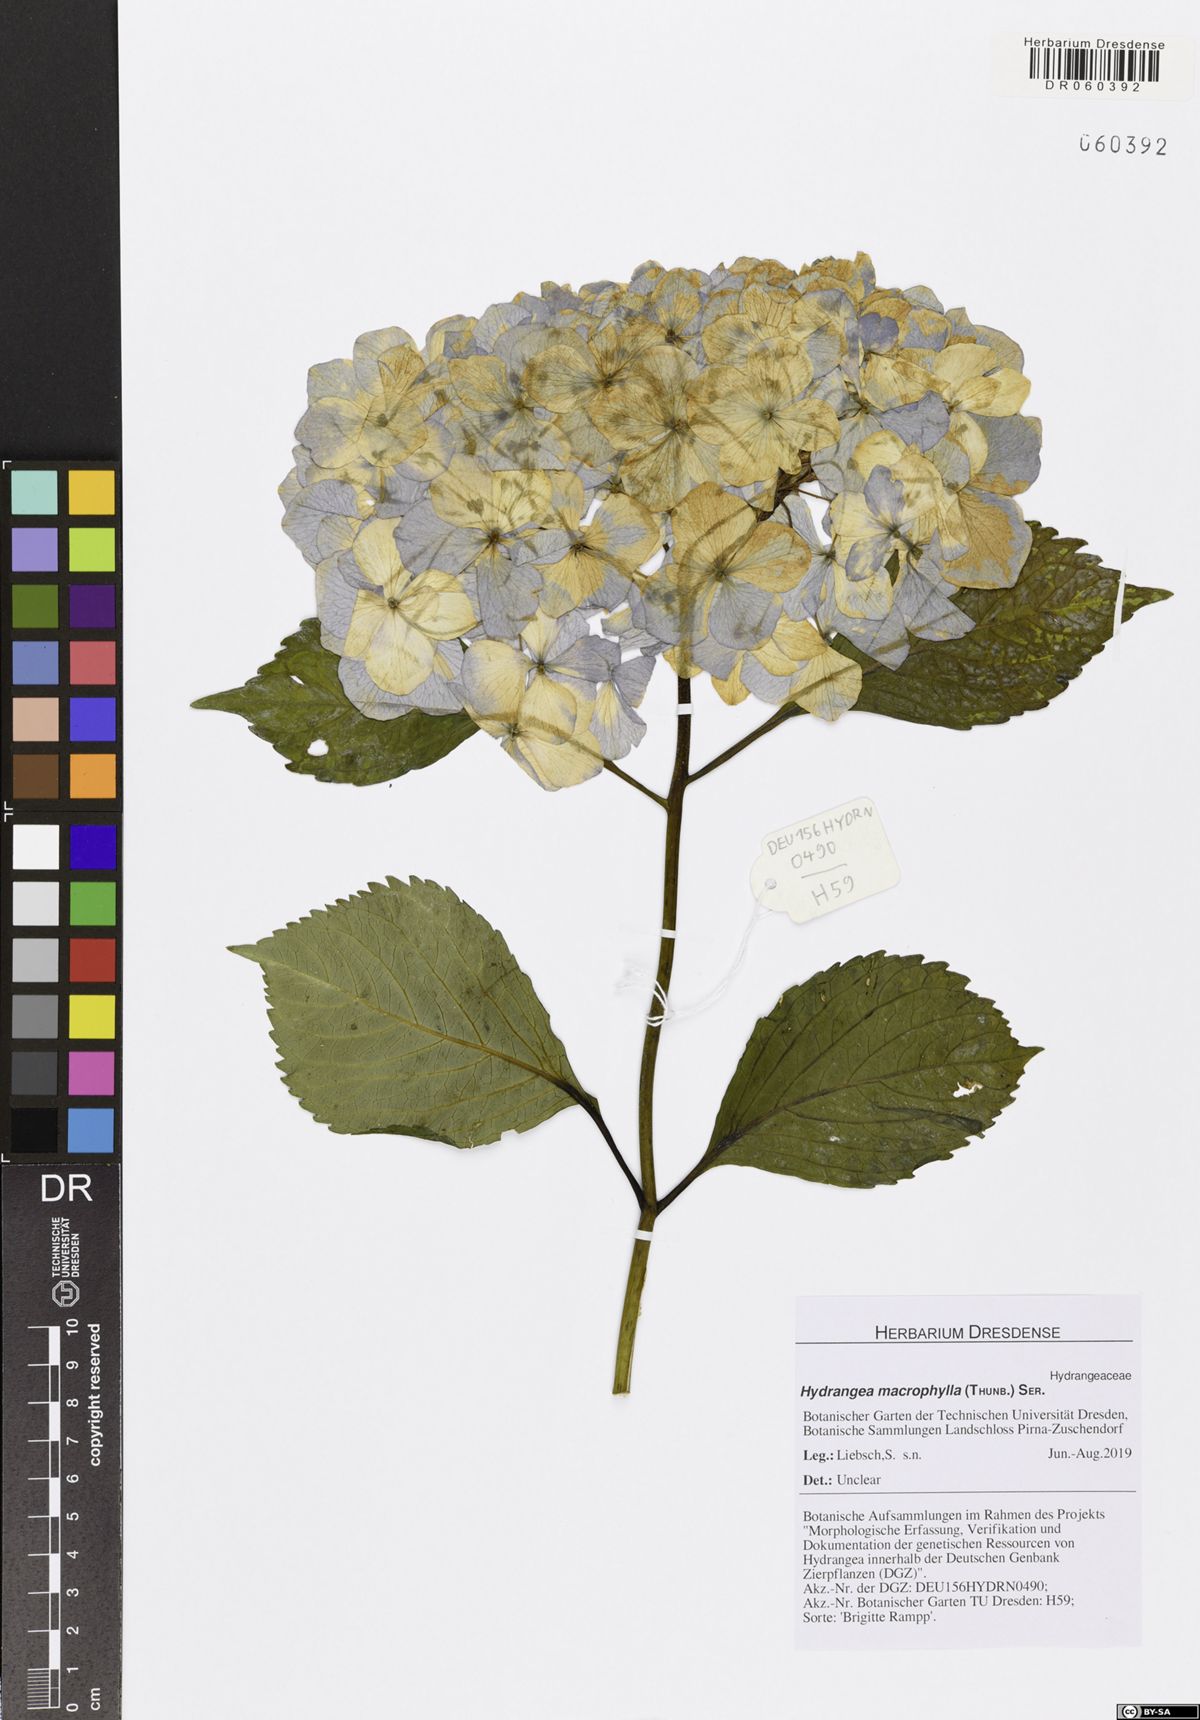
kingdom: Plantae
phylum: Tracheophyta
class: Magnoliopsida
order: Cornales
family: Hydrangeaceae
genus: Hydrangea
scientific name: Hydrangea macrophylla
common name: Hydrangea
